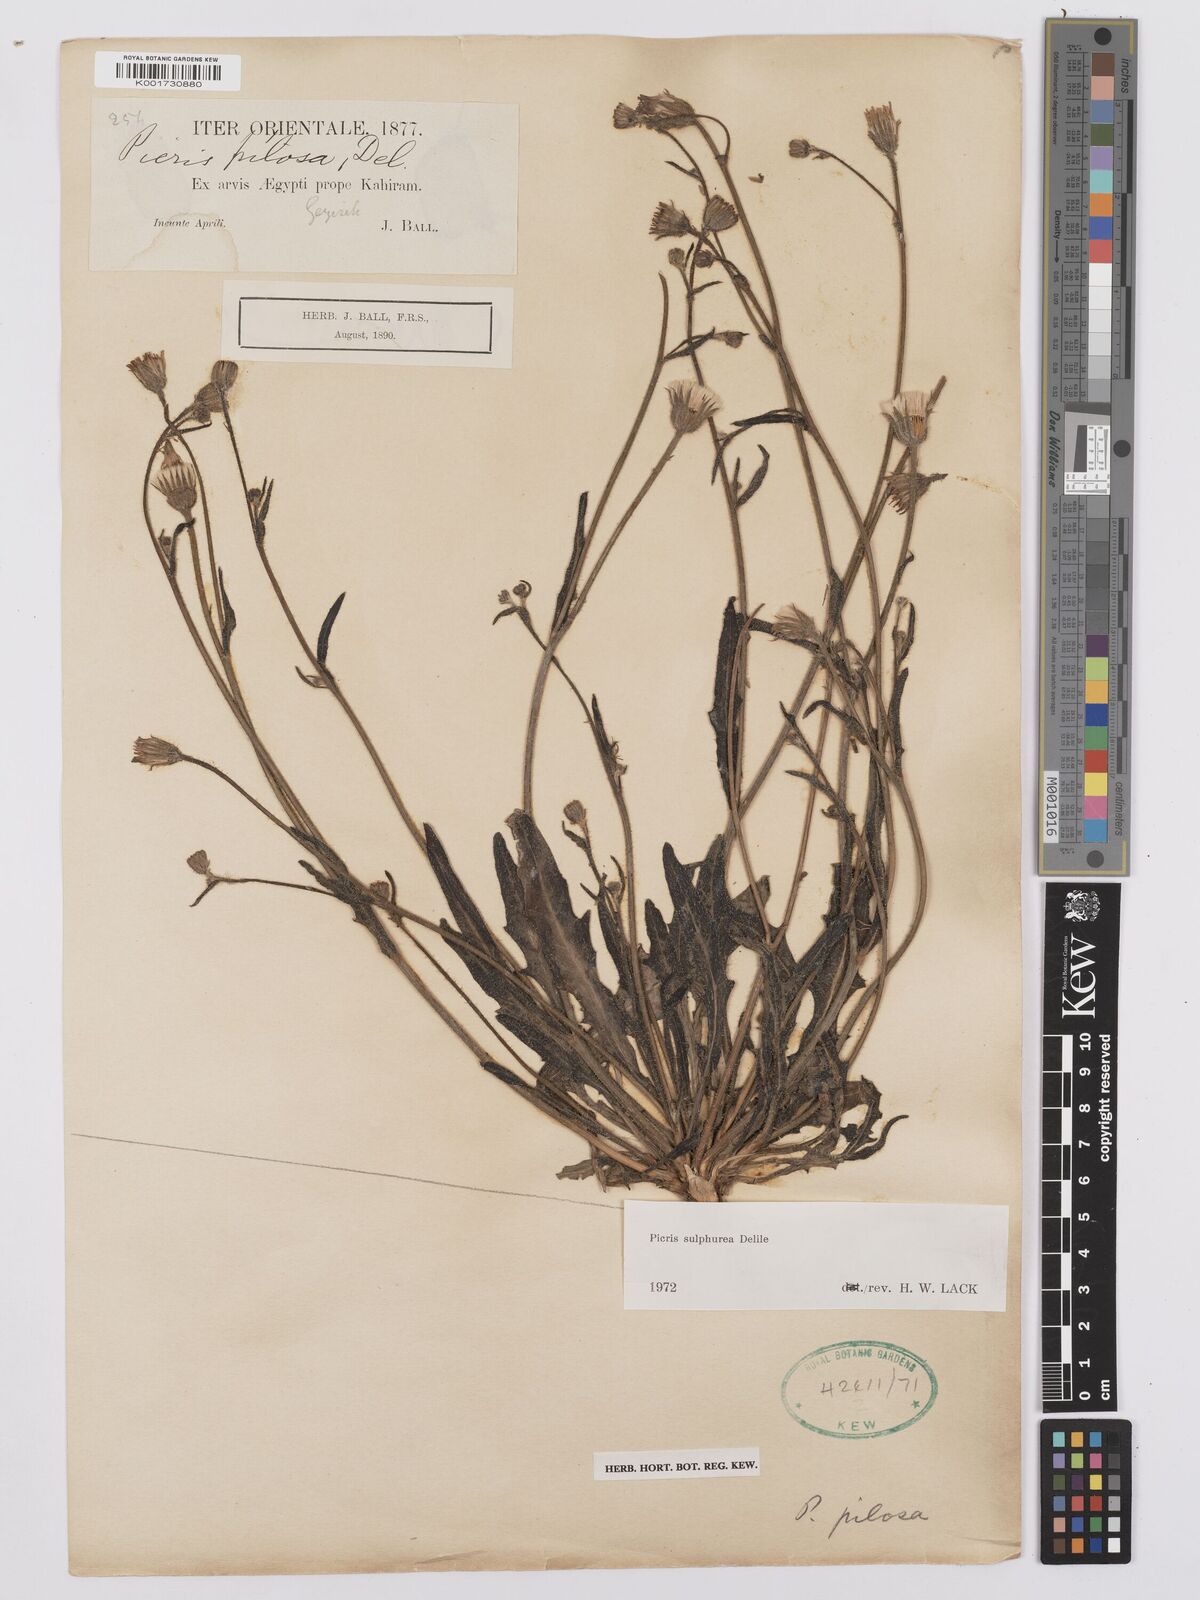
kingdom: Plantae
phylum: Tracheophyta
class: Magnoliopsida
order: Asterales
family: Asteraceae
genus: Picris
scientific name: Picris sulphurea
